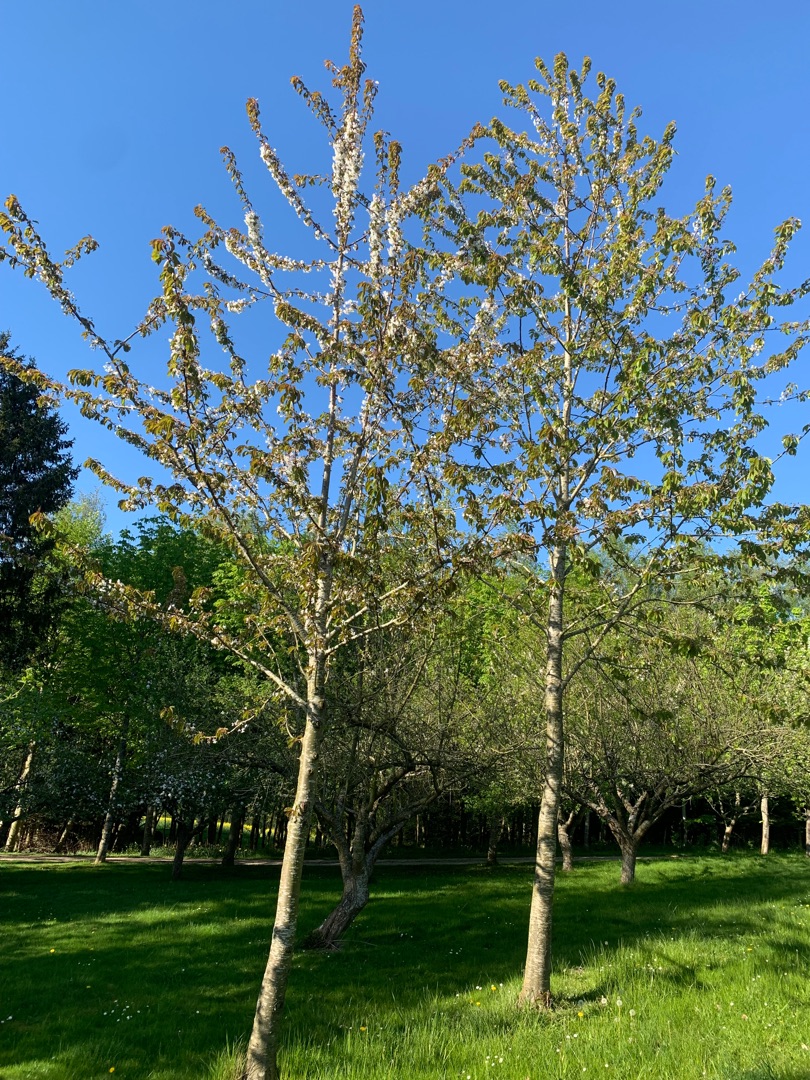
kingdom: Plantae
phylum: Tracheophyta
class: Magnoliopsida
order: Rosales
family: Rosaceae
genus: Prunus
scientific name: Prunus avium
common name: Fugle-kirsebær
